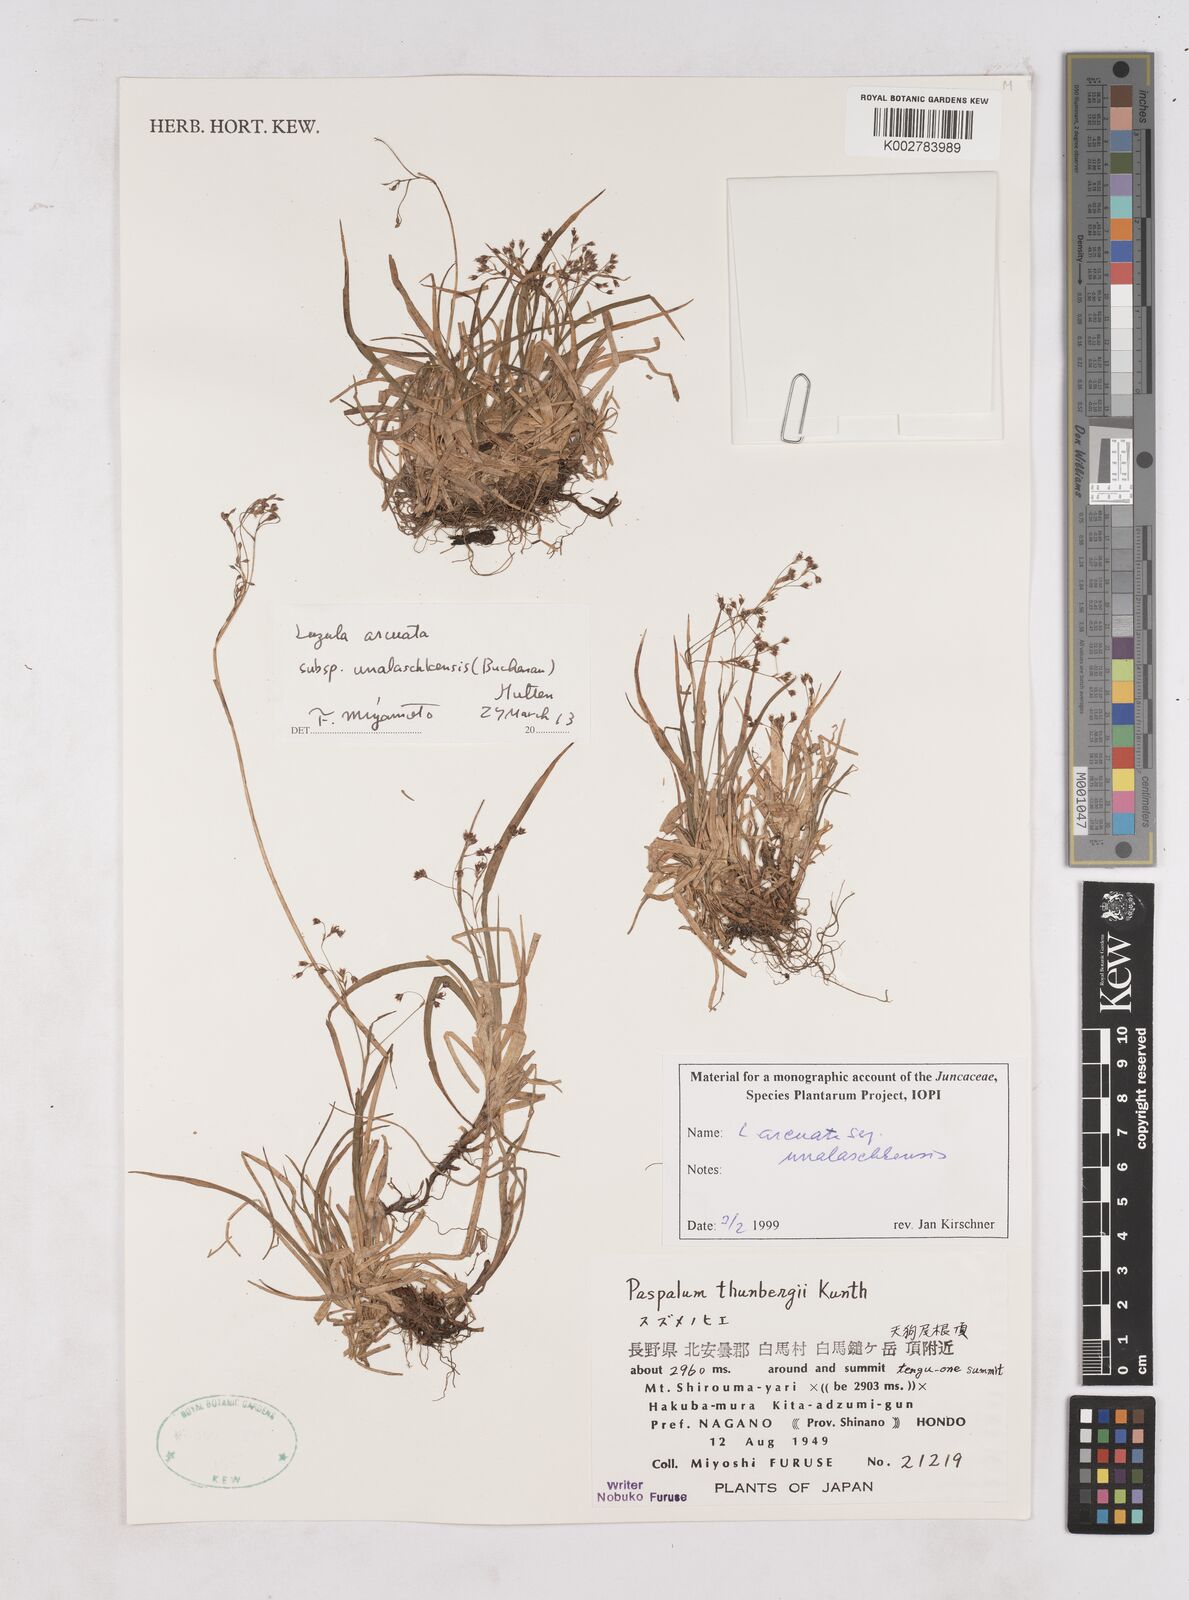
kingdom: Plantae
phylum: Tracheophyta
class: Liliopsida
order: Poales
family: Juncaceae
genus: Luzula
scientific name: Luzula arcuata
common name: Curved wood-rush
